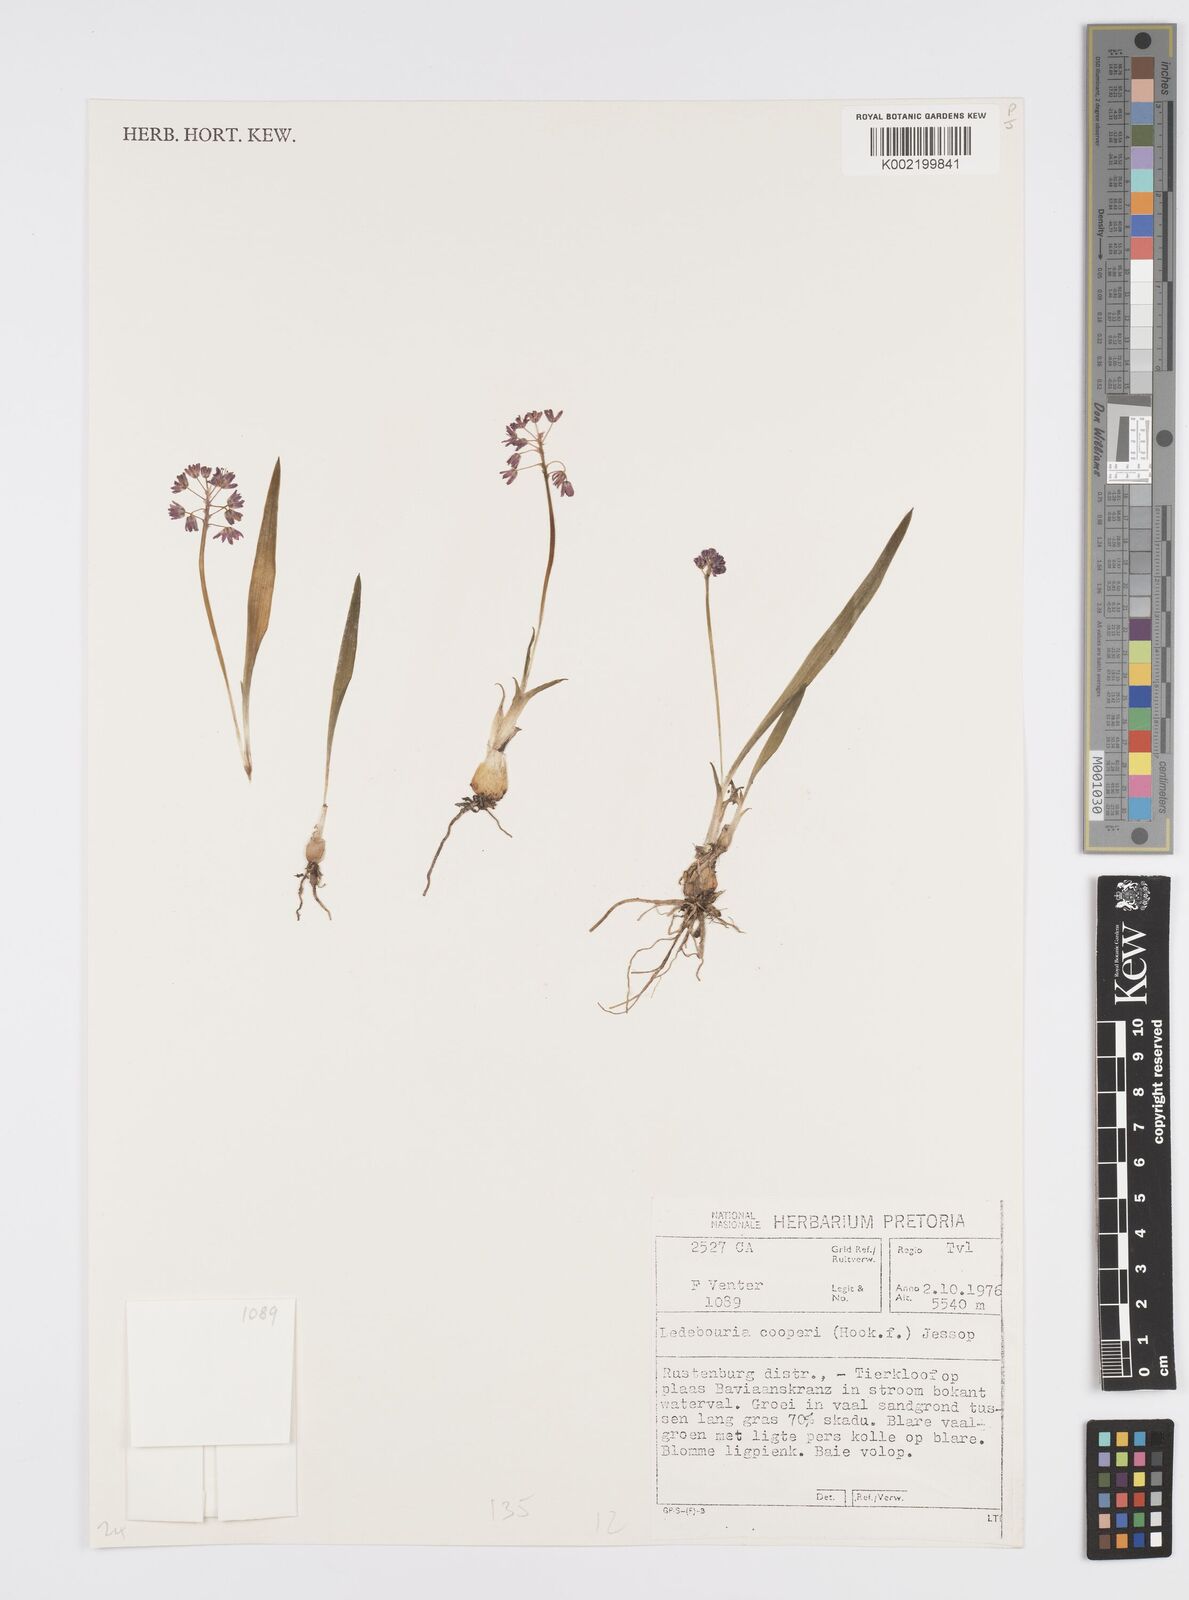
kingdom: Plantae
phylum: Tracheophyta
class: Liliopsida
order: Asparagales
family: Asparagaceae
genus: Ledebouria
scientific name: Ledebouria cooperi
